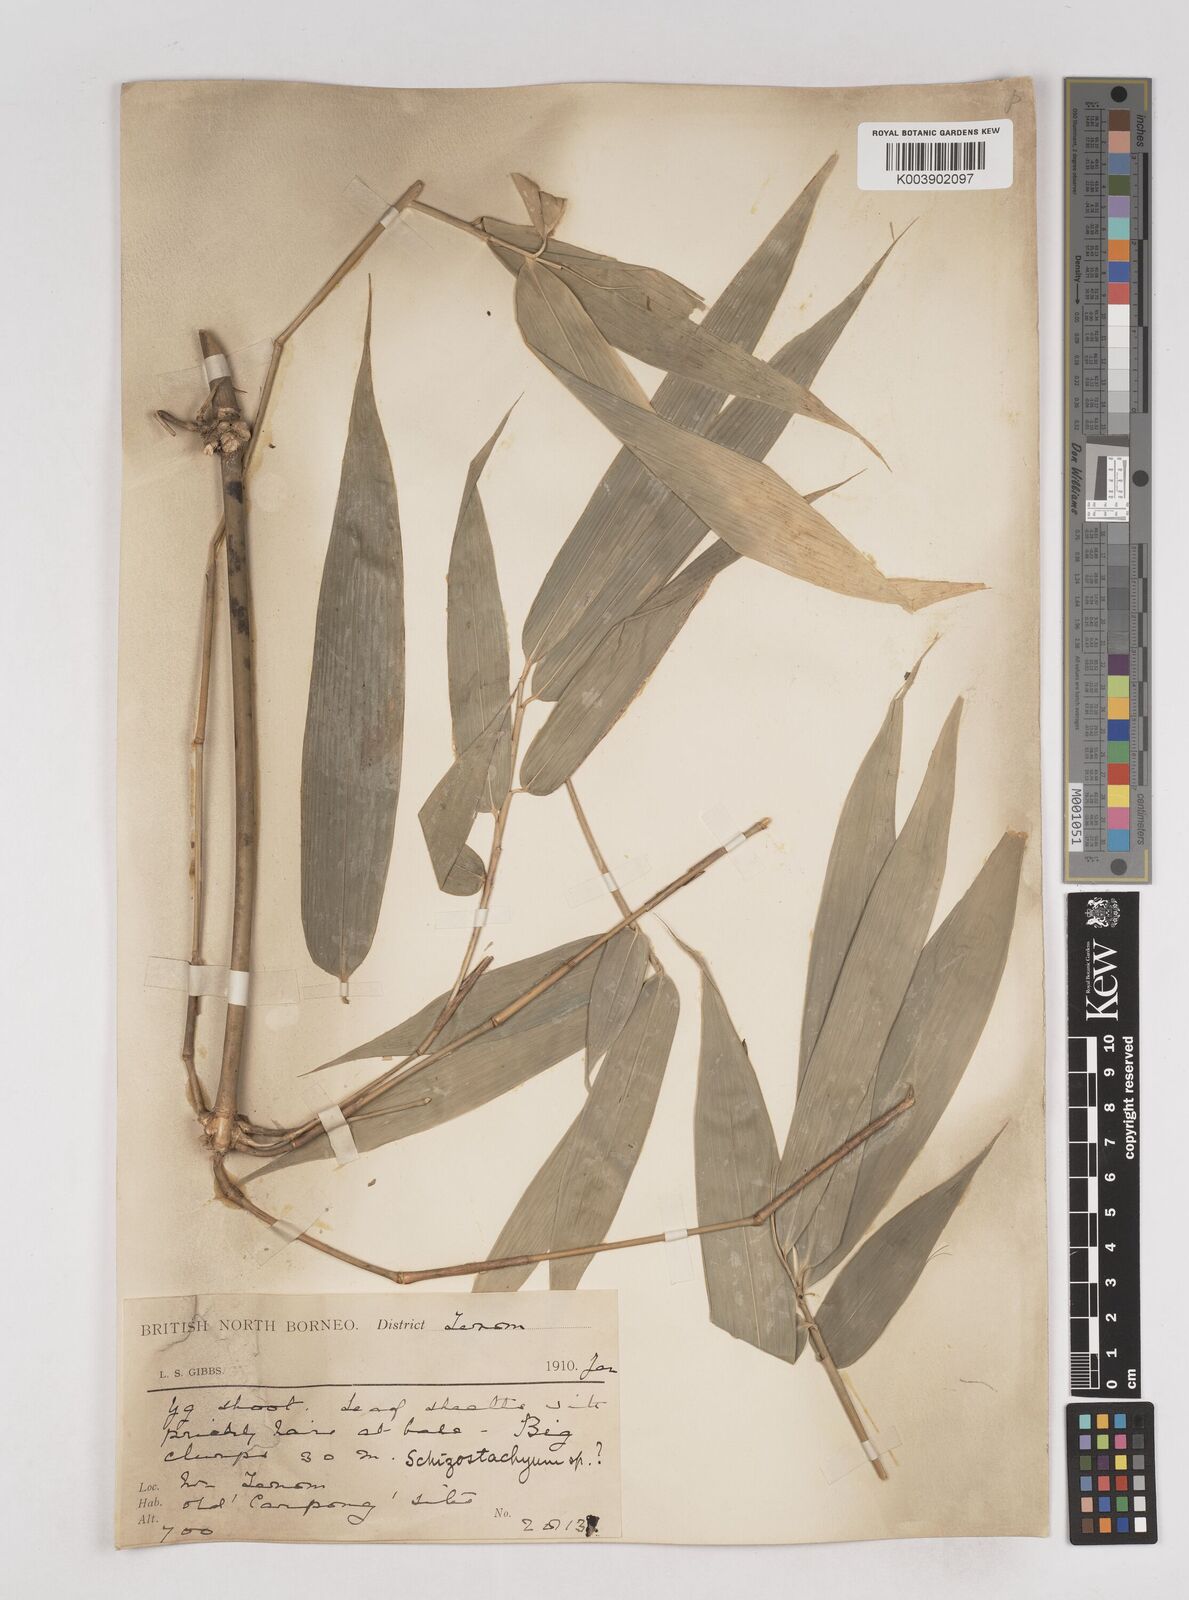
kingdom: Plantae
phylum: Tracheophyta
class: Liliopsida
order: Poales
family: Poaceae
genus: Schizostachyum
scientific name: Schizostachyum jaculans
